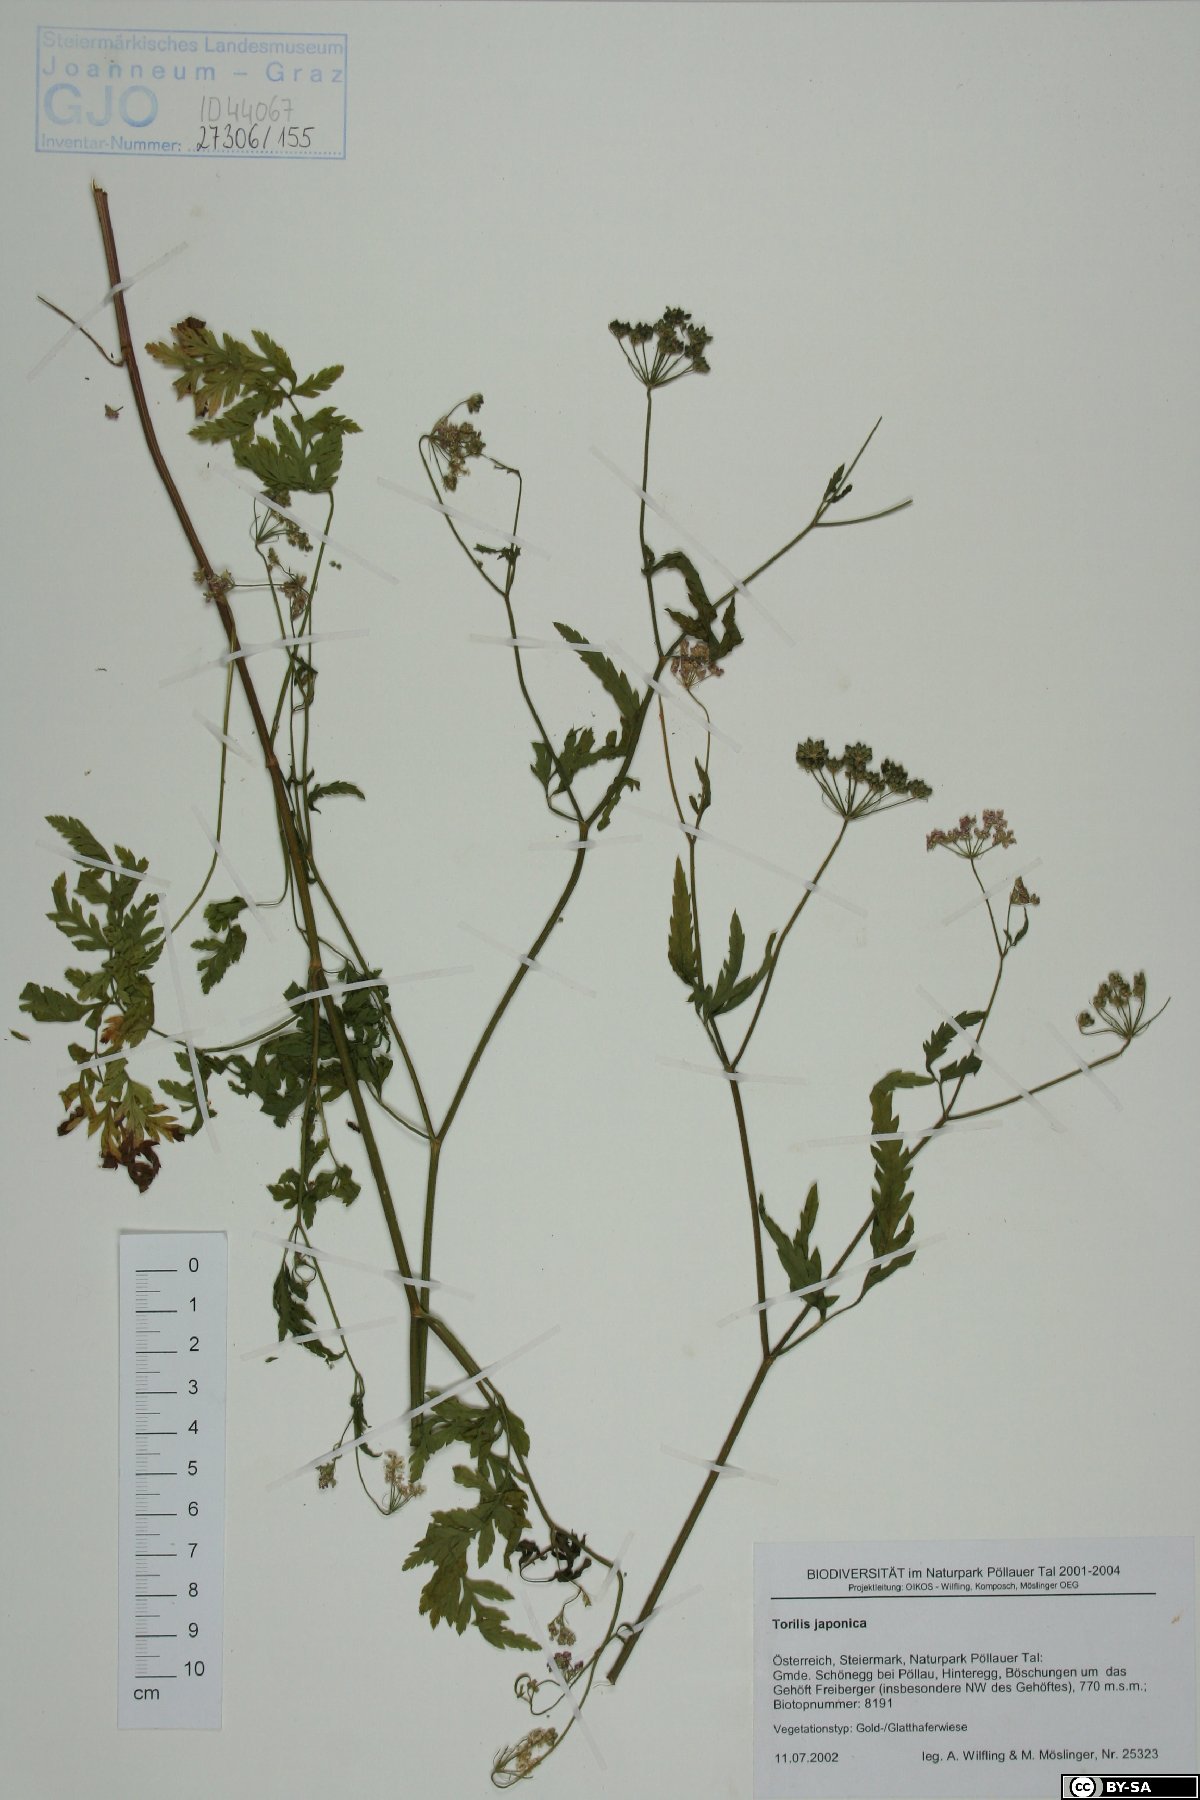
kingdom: Plantae
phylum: Tracheophyta
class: Magnoliopsida
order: Apiales
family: Apiaceae
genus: Torilis
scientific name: Torilis japonica
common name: Upright hedge-parsley
